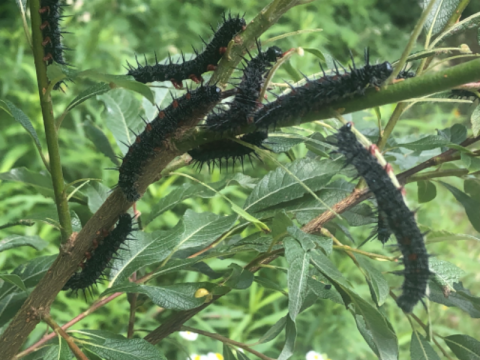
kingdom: Animalia
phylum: Arthropoda
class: Insecta
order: Lepidoptera
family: Nymphalidae
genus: Nymphalis
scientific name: Nymphalis antiopa
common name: Mourning Cloak
